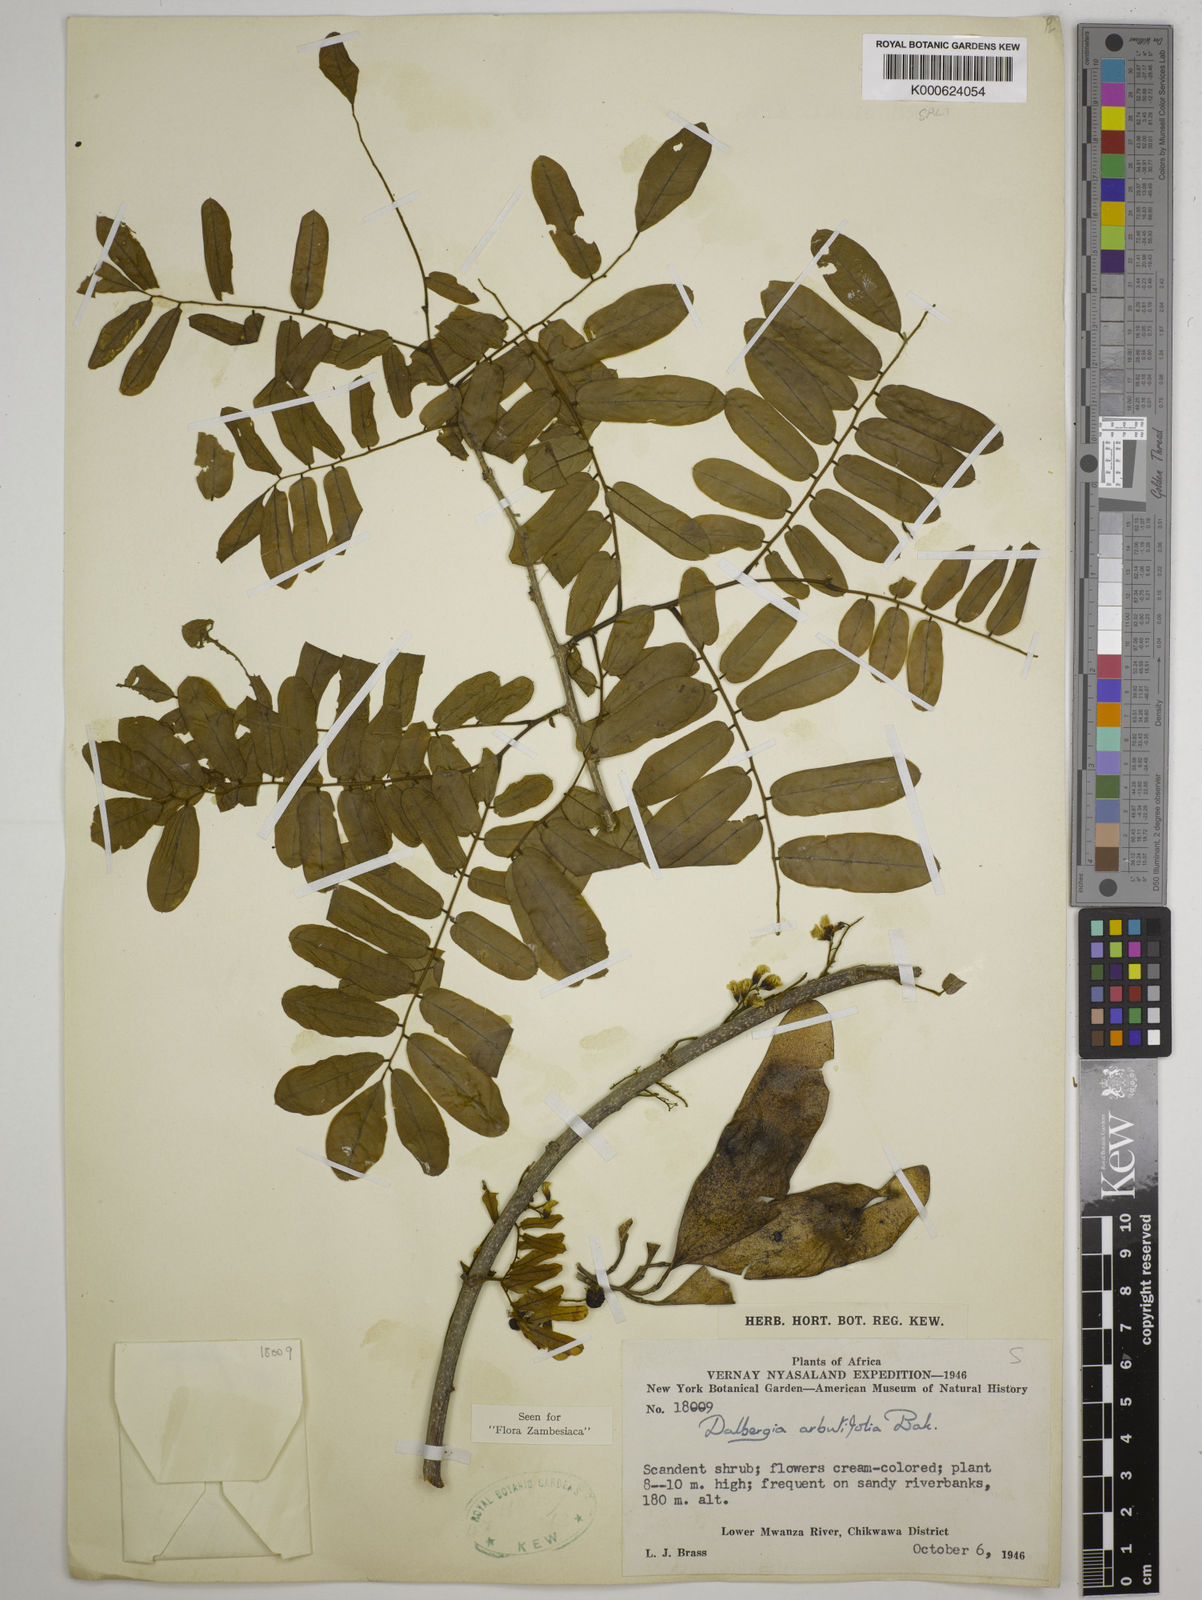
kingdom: Plantae
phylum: Tracheophyta
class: Magnoliopsida
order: Fabales
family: Fabaceae
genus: Dalbergia
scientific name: Dalbergia arbutifolia
